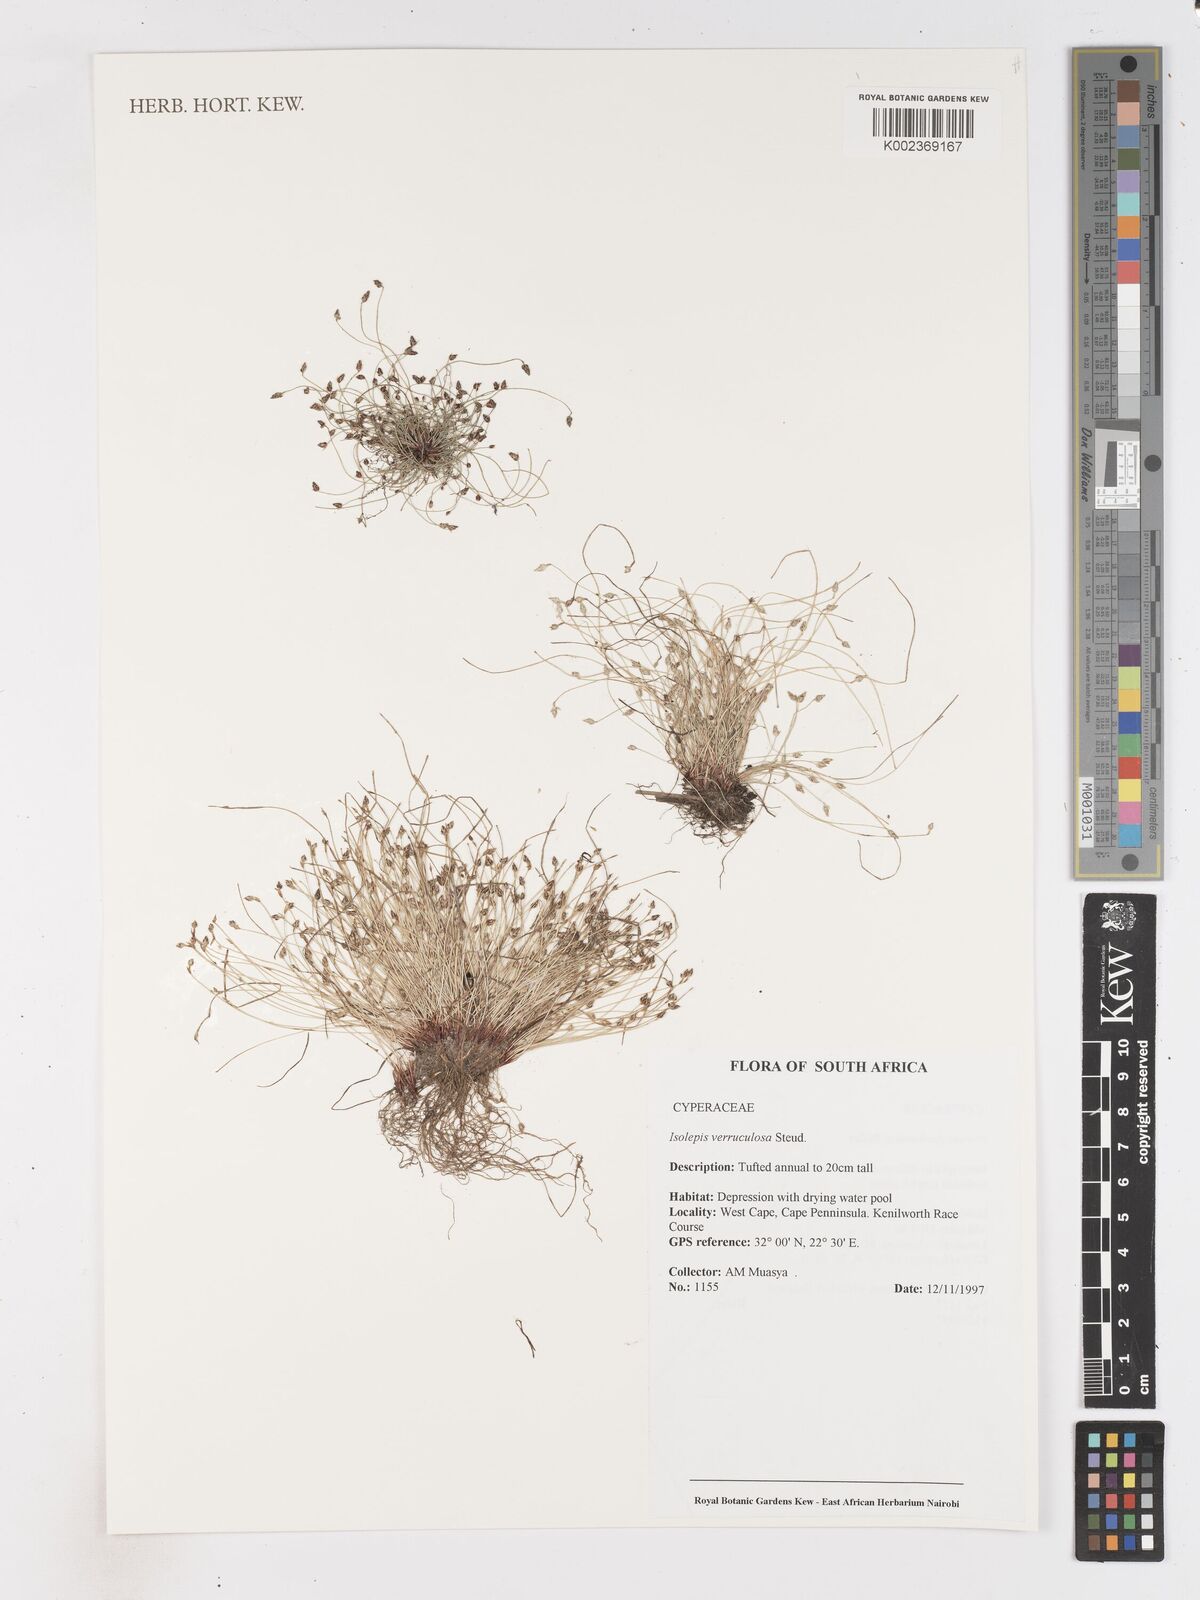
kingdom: Plantae
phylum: Tracheophyta
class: Liliopsida
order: Poales
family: Cyperaceae
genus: Isolepis
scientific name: Isolepis cernua
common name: Slender club-rush
